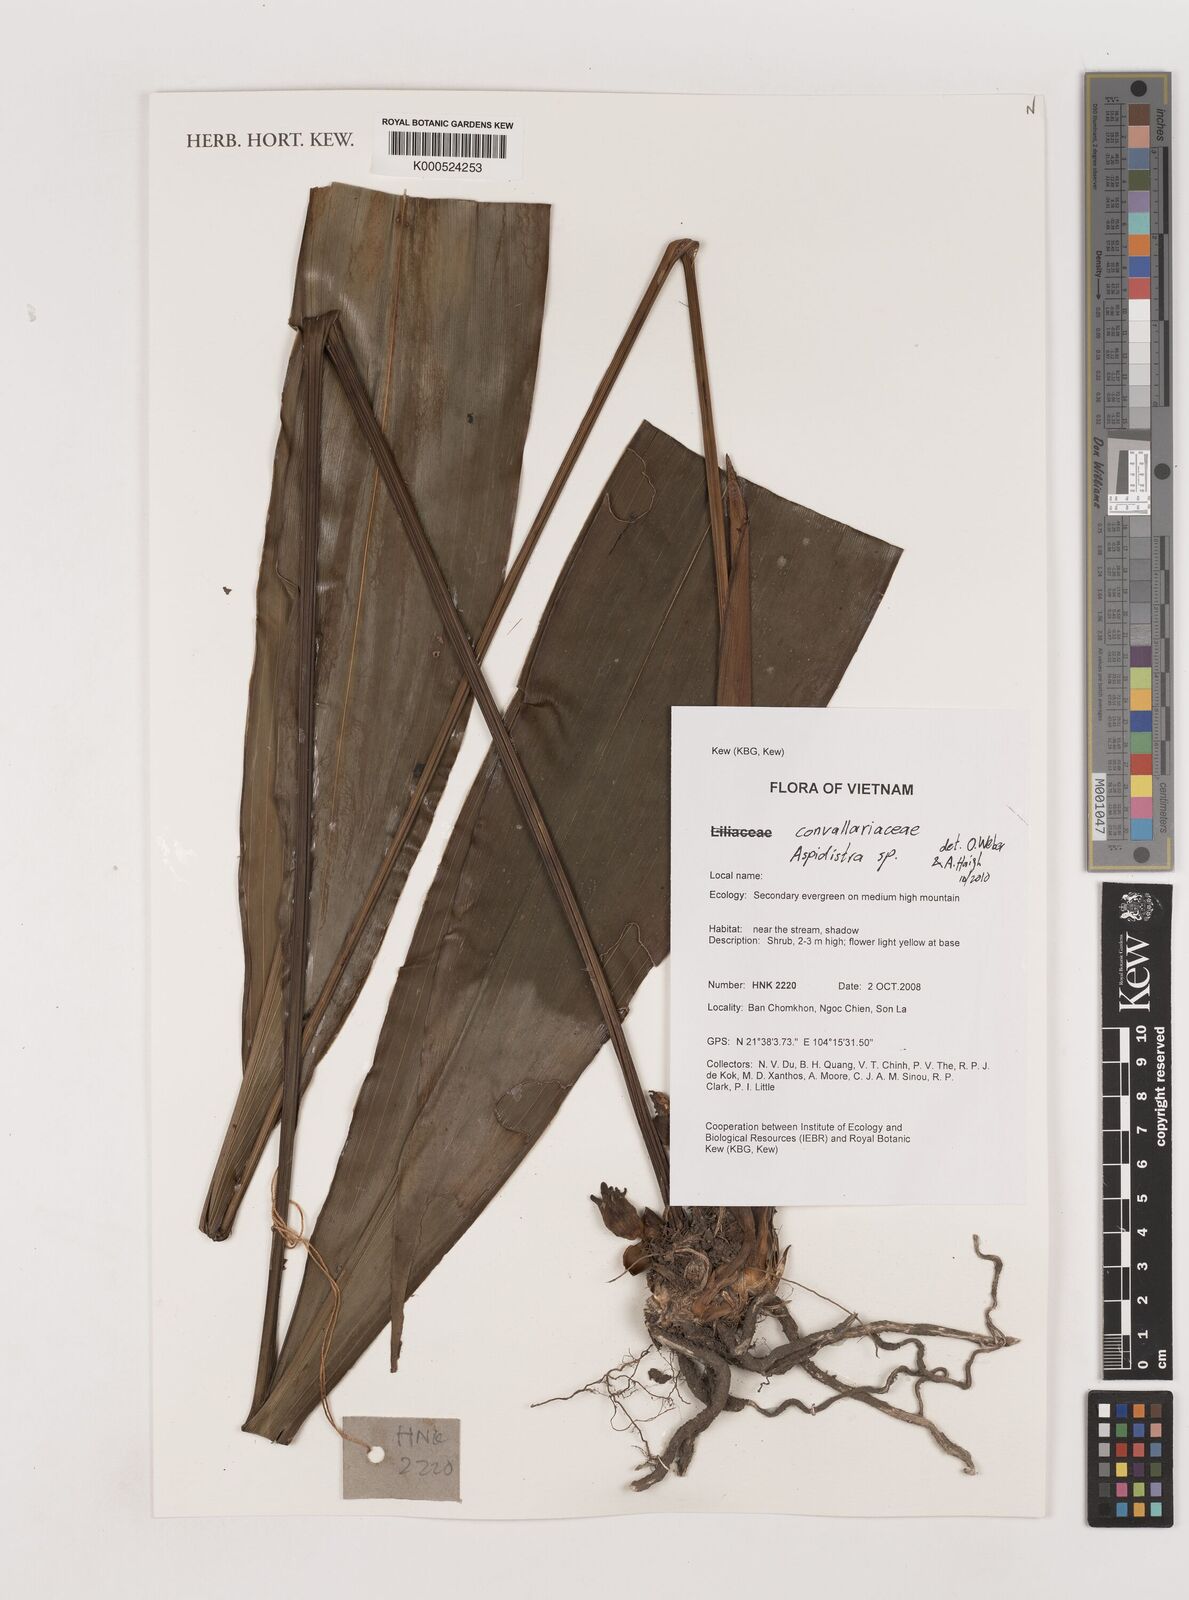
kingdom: Plantae
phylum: Tracheophyta
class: Liliopsida
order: Asparagales
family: Asparagaceae
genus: Aspidistra
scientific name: Aspidistra
